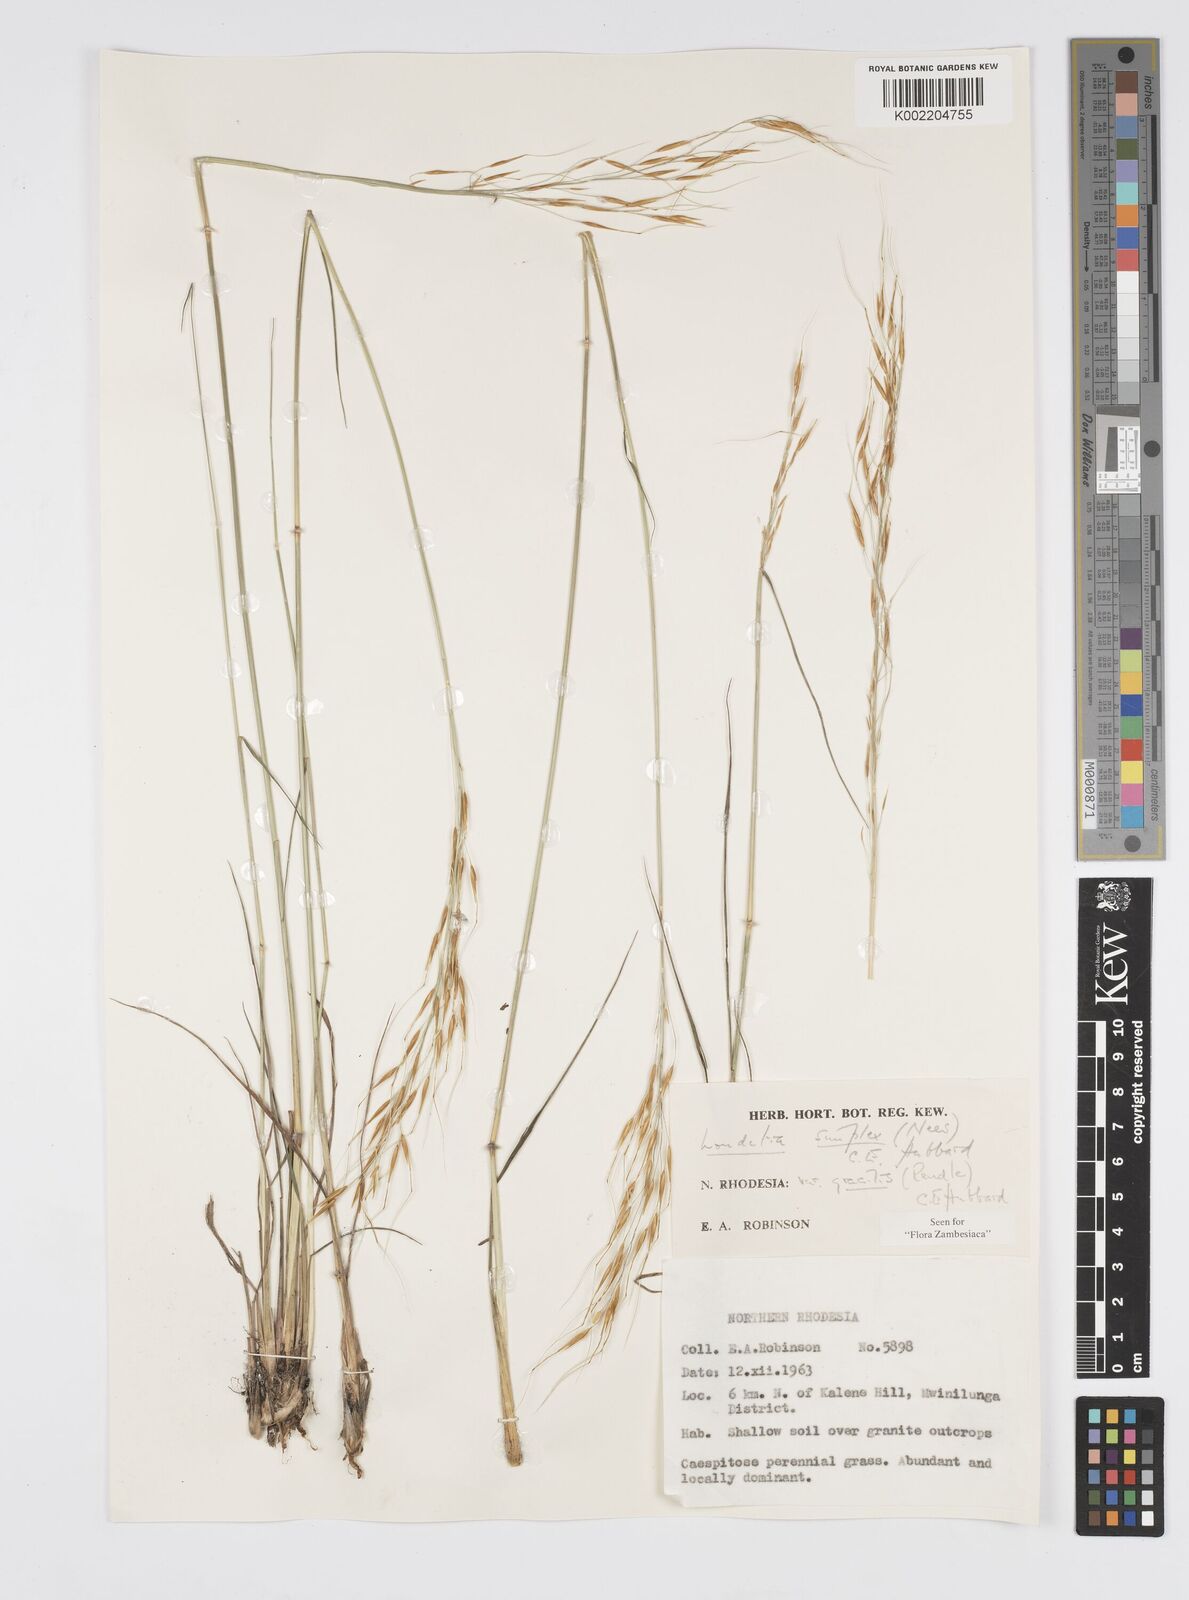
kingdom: Plantae
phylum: Tracheophyta
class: Liliopsida
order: Poales
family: Poaceae
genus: Loudetia
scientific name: Loudetia simplex
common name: Common russet grass
